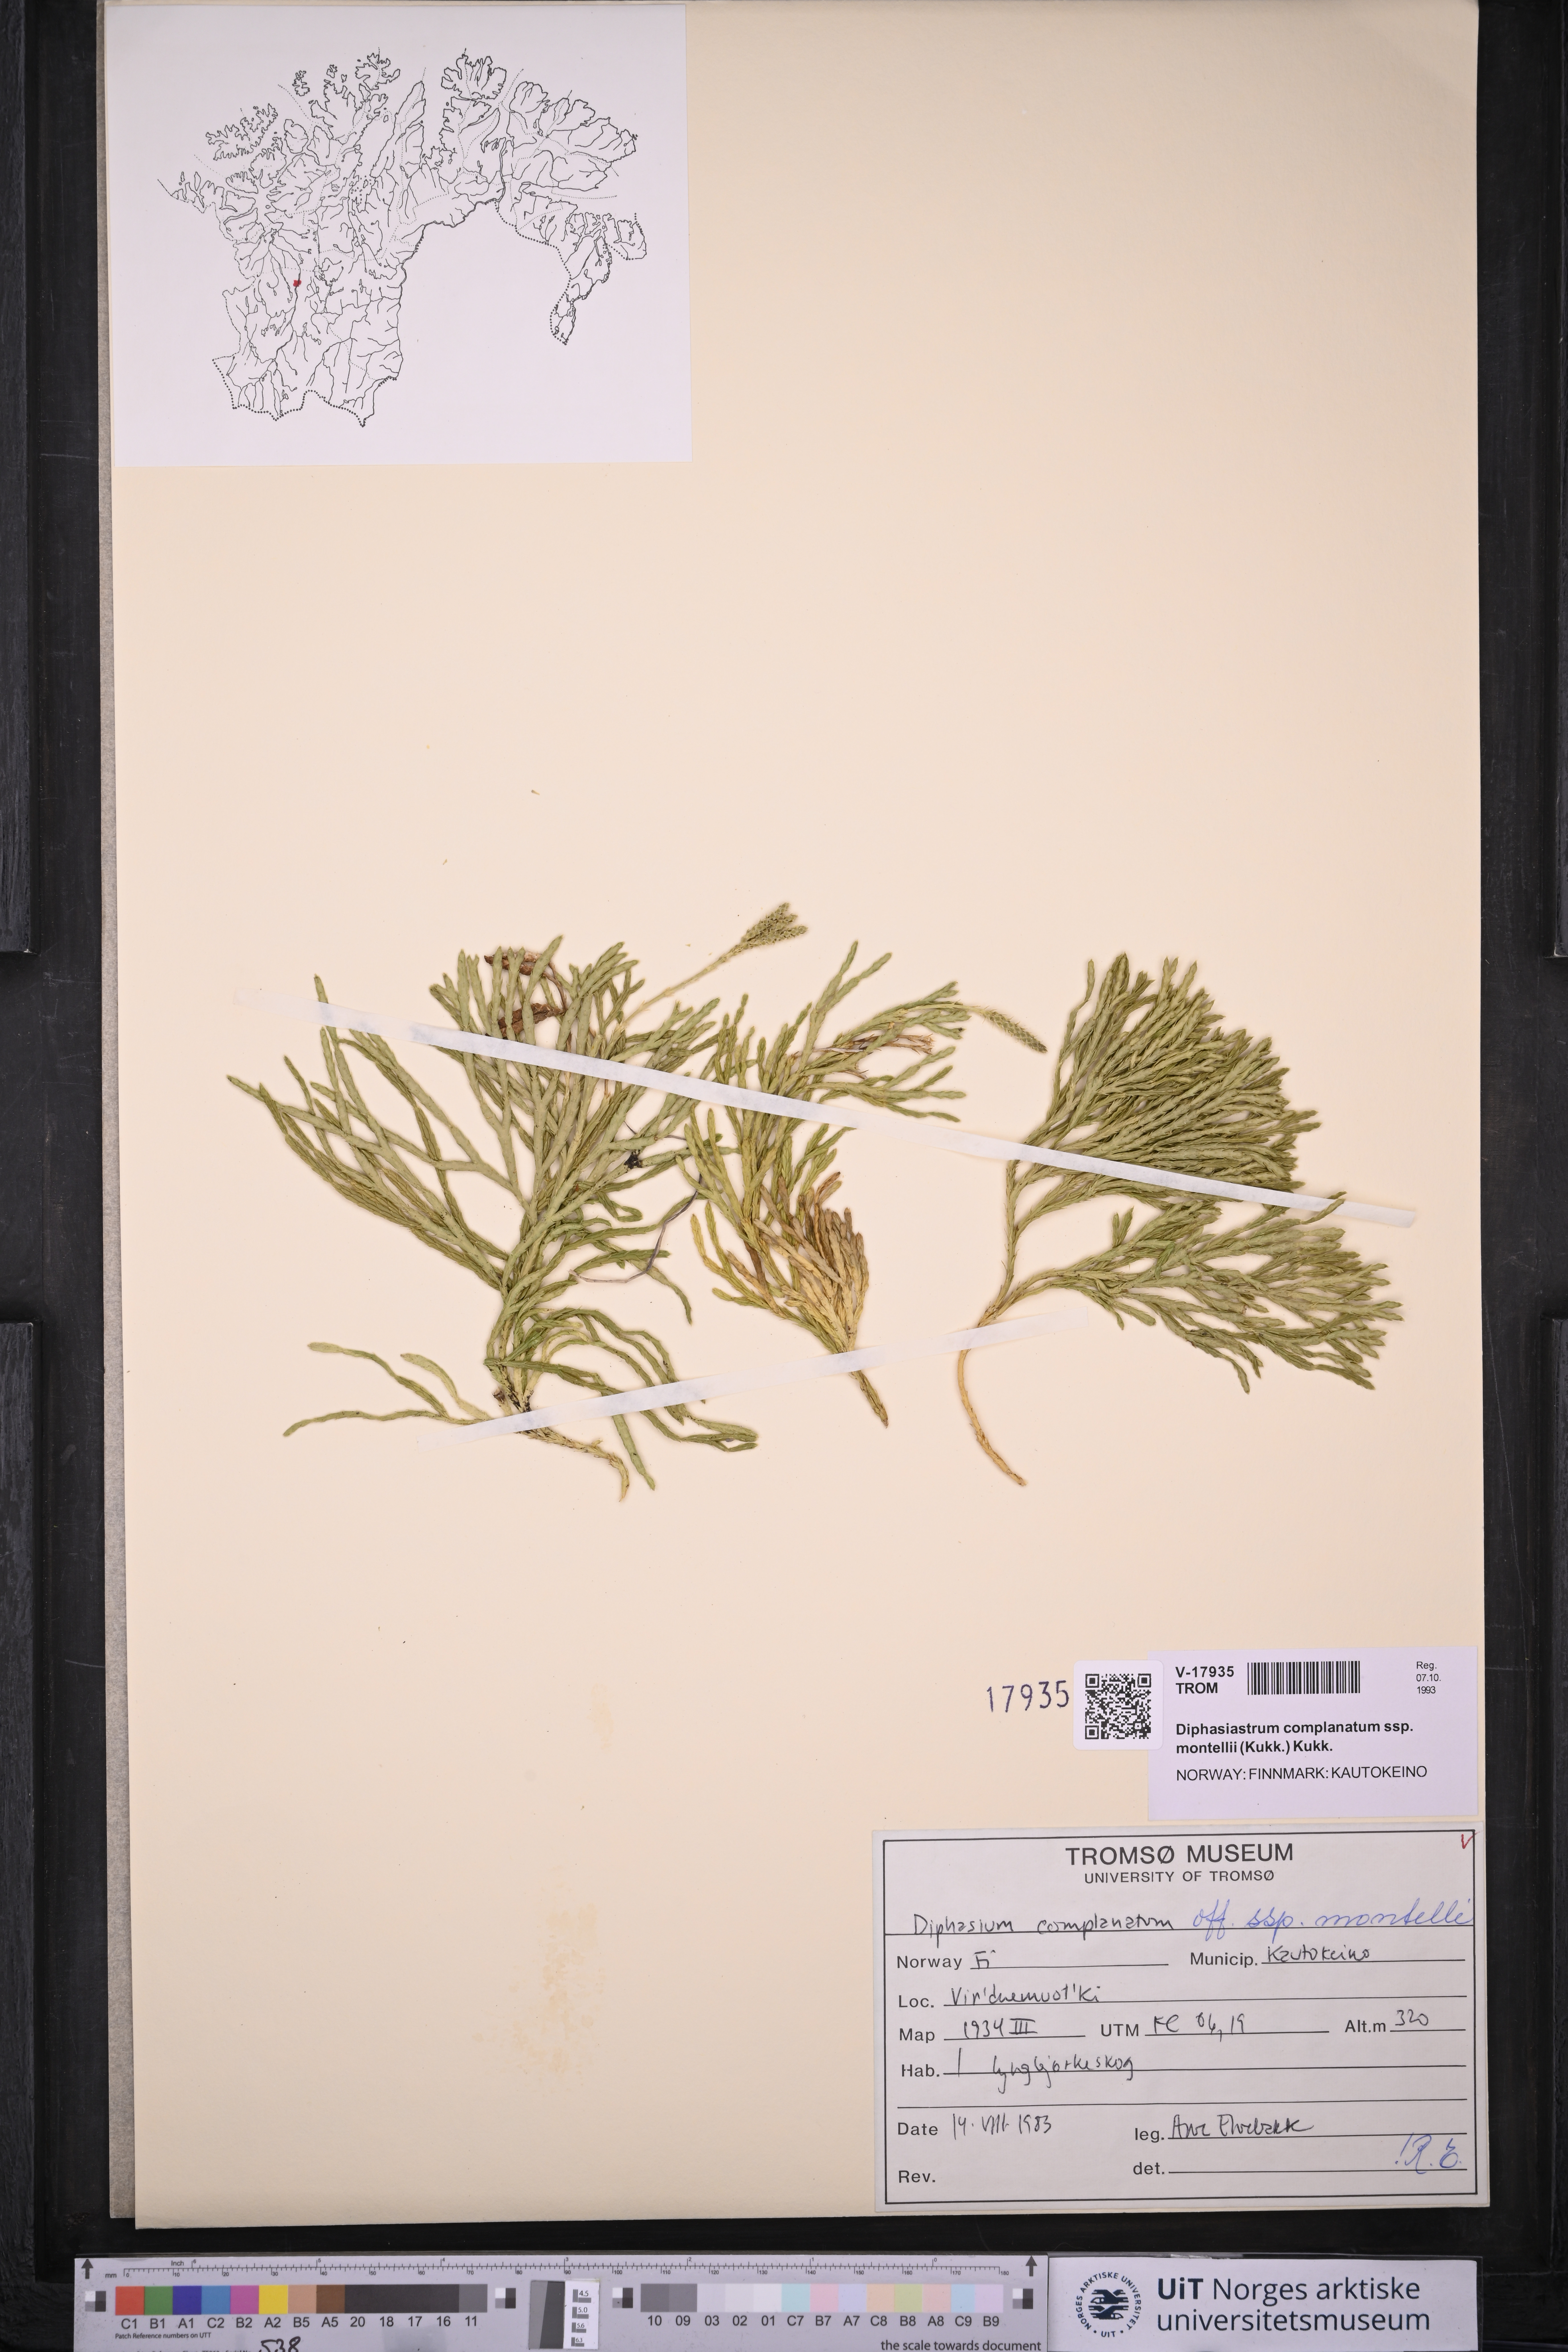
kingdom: Plantae
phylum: Tracheophyta
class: Lycopodiopsida
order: Lycopodiales
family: Lycopodiaceae
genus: Diphasiastrum
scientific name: Diphasiastrum complanatum
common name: Northern running-pine
